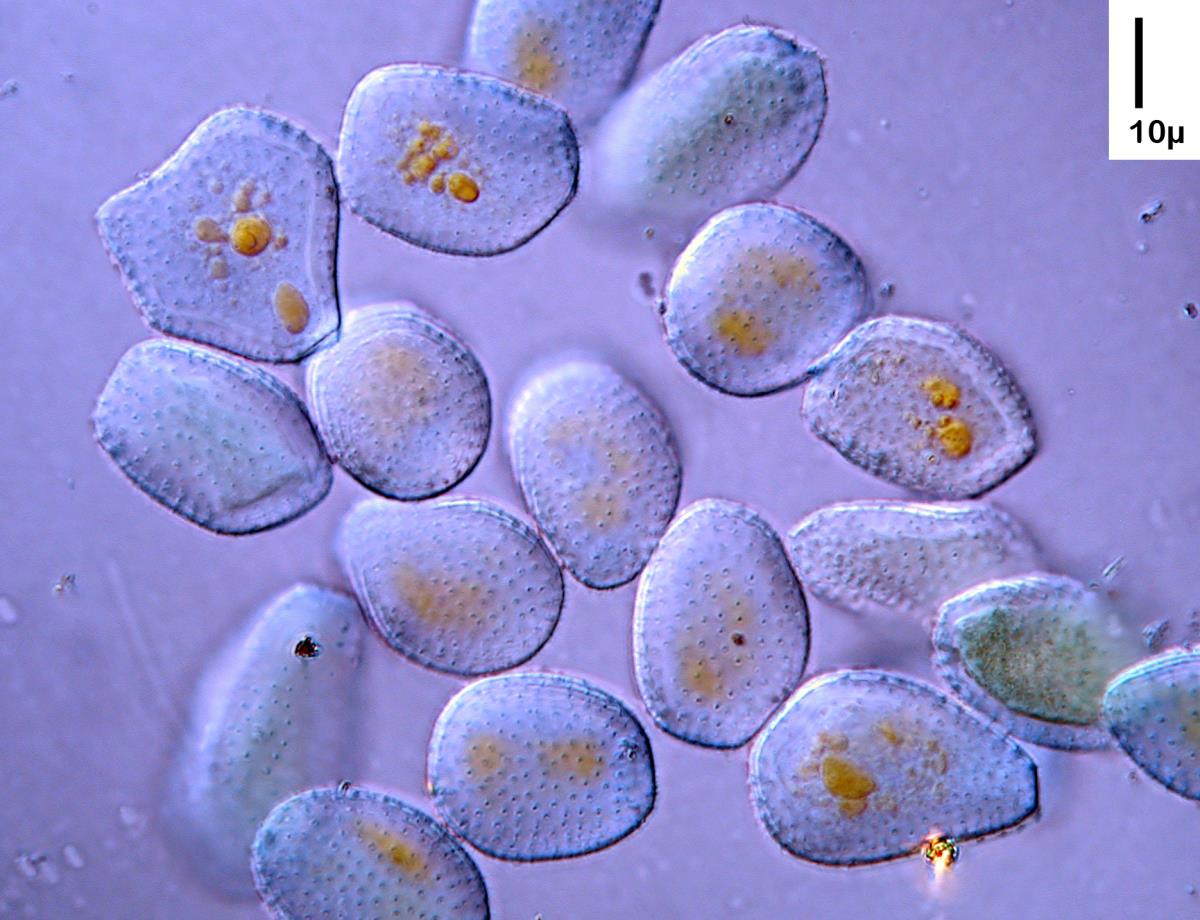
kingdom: Fungi
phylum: Basidiomycota
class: Pucciniomycetes
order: Pucciniales
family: Pucciniaceae
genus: Peristemma
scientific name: Peristemma pseudosphaeria
